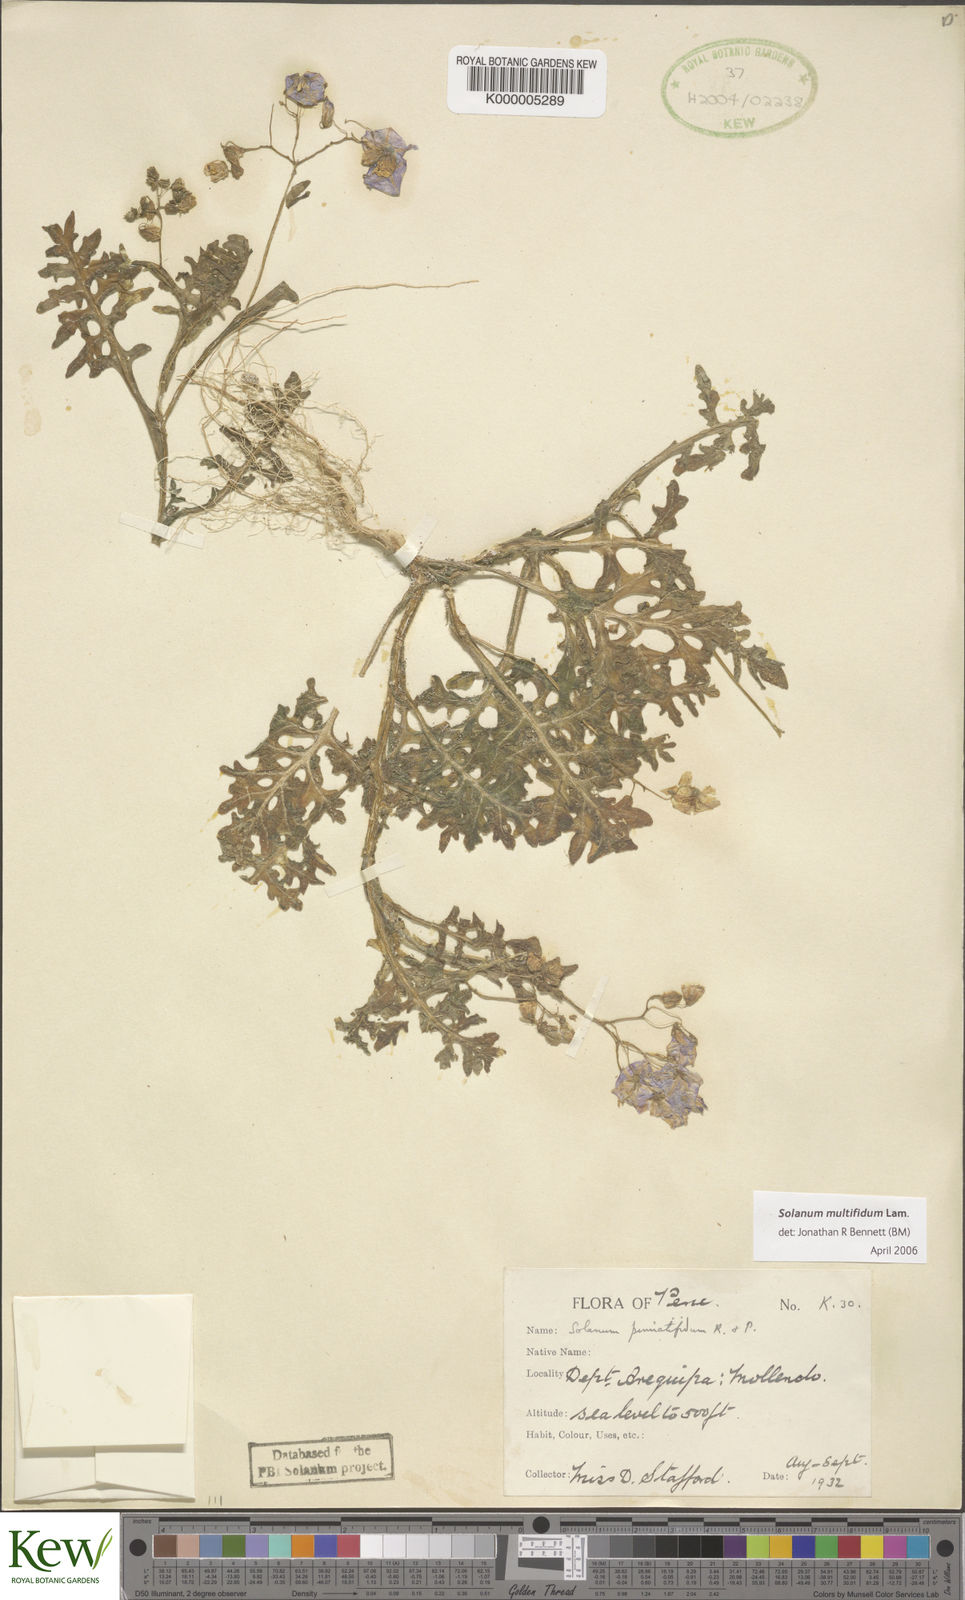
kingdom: Plantae
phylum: Tracheophyta
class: Magnoliopsida
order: Solanales
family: Solanaceae
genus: Solanum
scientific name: Solanum multifidum
